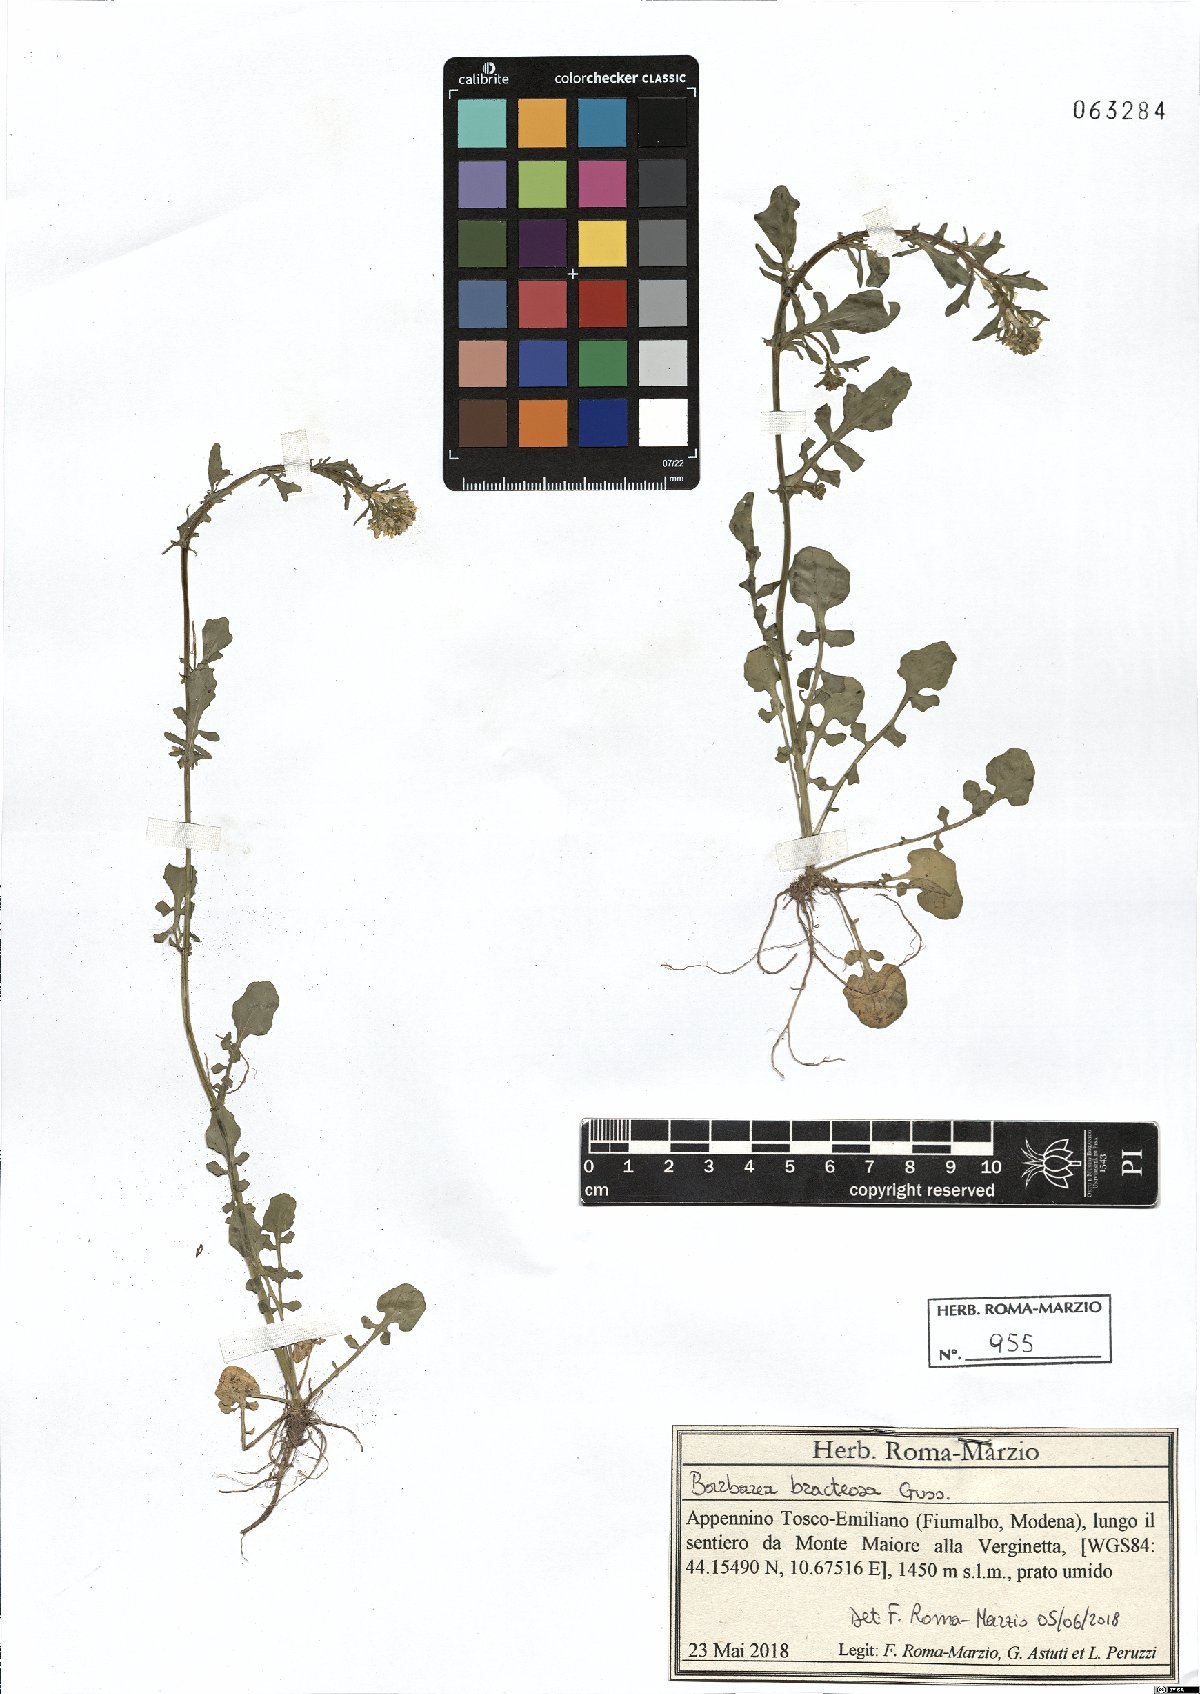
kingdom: Plantae
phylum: Tracheophyta
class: Magnoliopsida
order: Brassicales
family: Brassicaceae
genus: Barbarea
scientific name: Barbarea bracteosa
